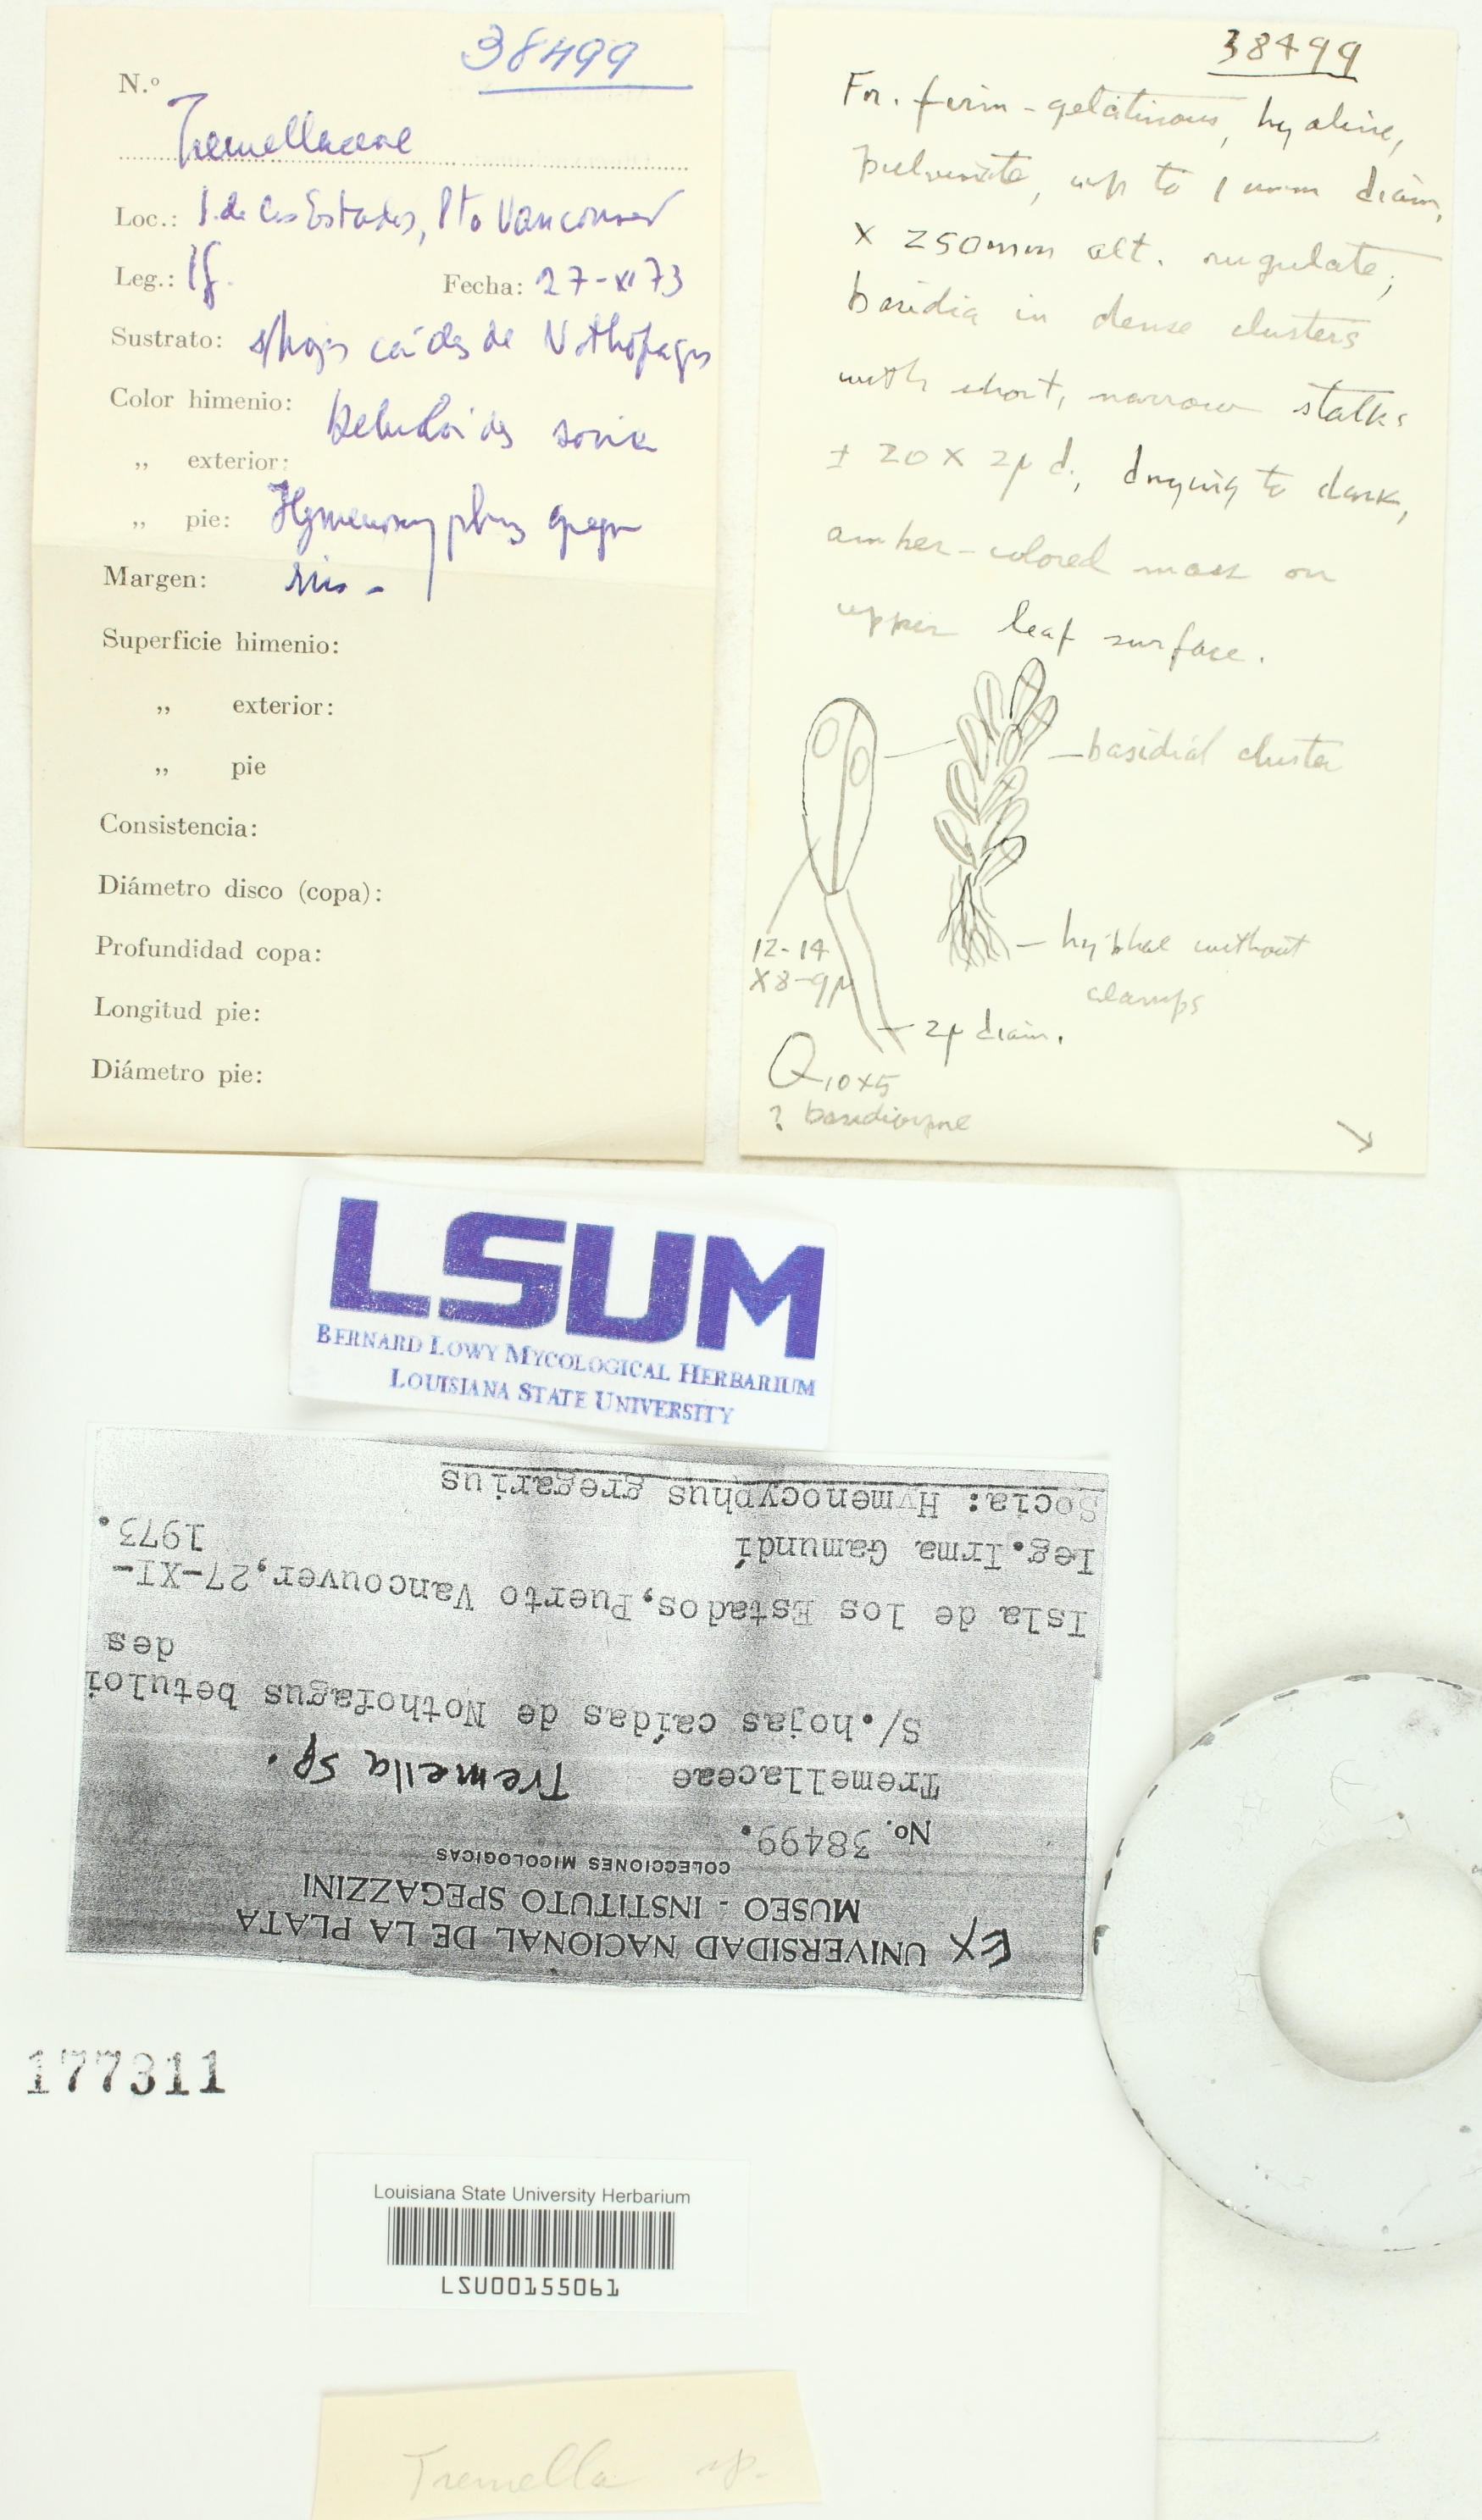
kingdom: Fungi
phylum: Basidiomycota
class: Tremellomycetes
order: Tremellales
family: Tremellaceae
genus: Tremella
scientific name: Tremella
